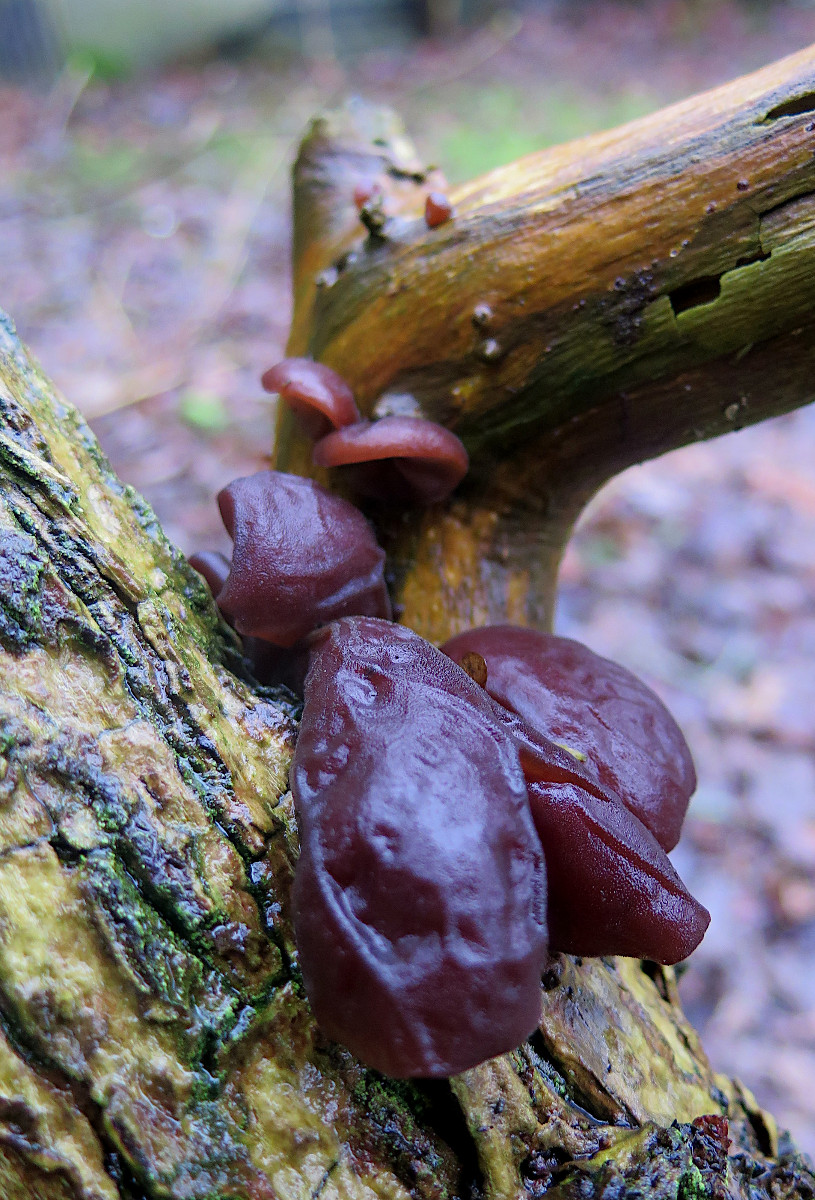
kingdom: Fungi
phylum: Basidiomycota
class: Agaricomycetes
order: Auriculariales
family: Auriculariaceae
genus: Auricularia
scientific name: Auricularia auricula-judae
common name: almindelig judasøre
